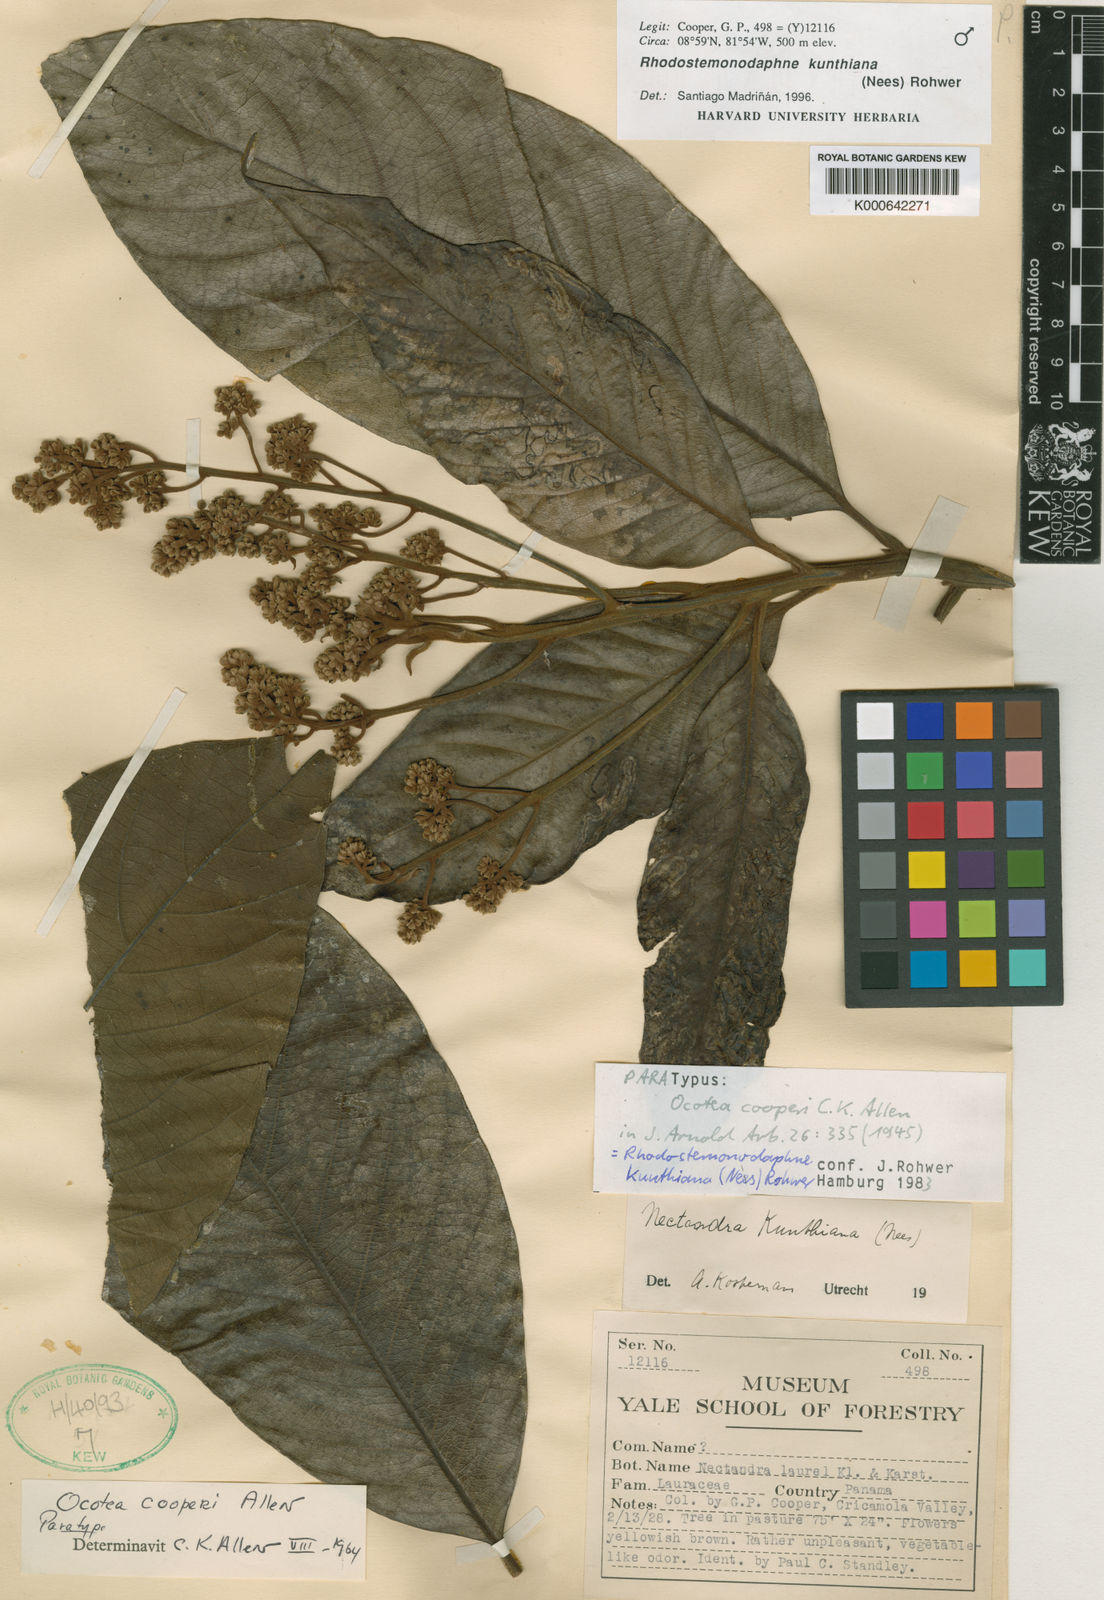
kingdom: Plantae
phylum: Tracheophyta
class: Magnoliopsida
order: Laurales
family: Lauraceae
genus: Rhodostemonodaphne
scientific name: Rhodostemonodaphne kunthiana
